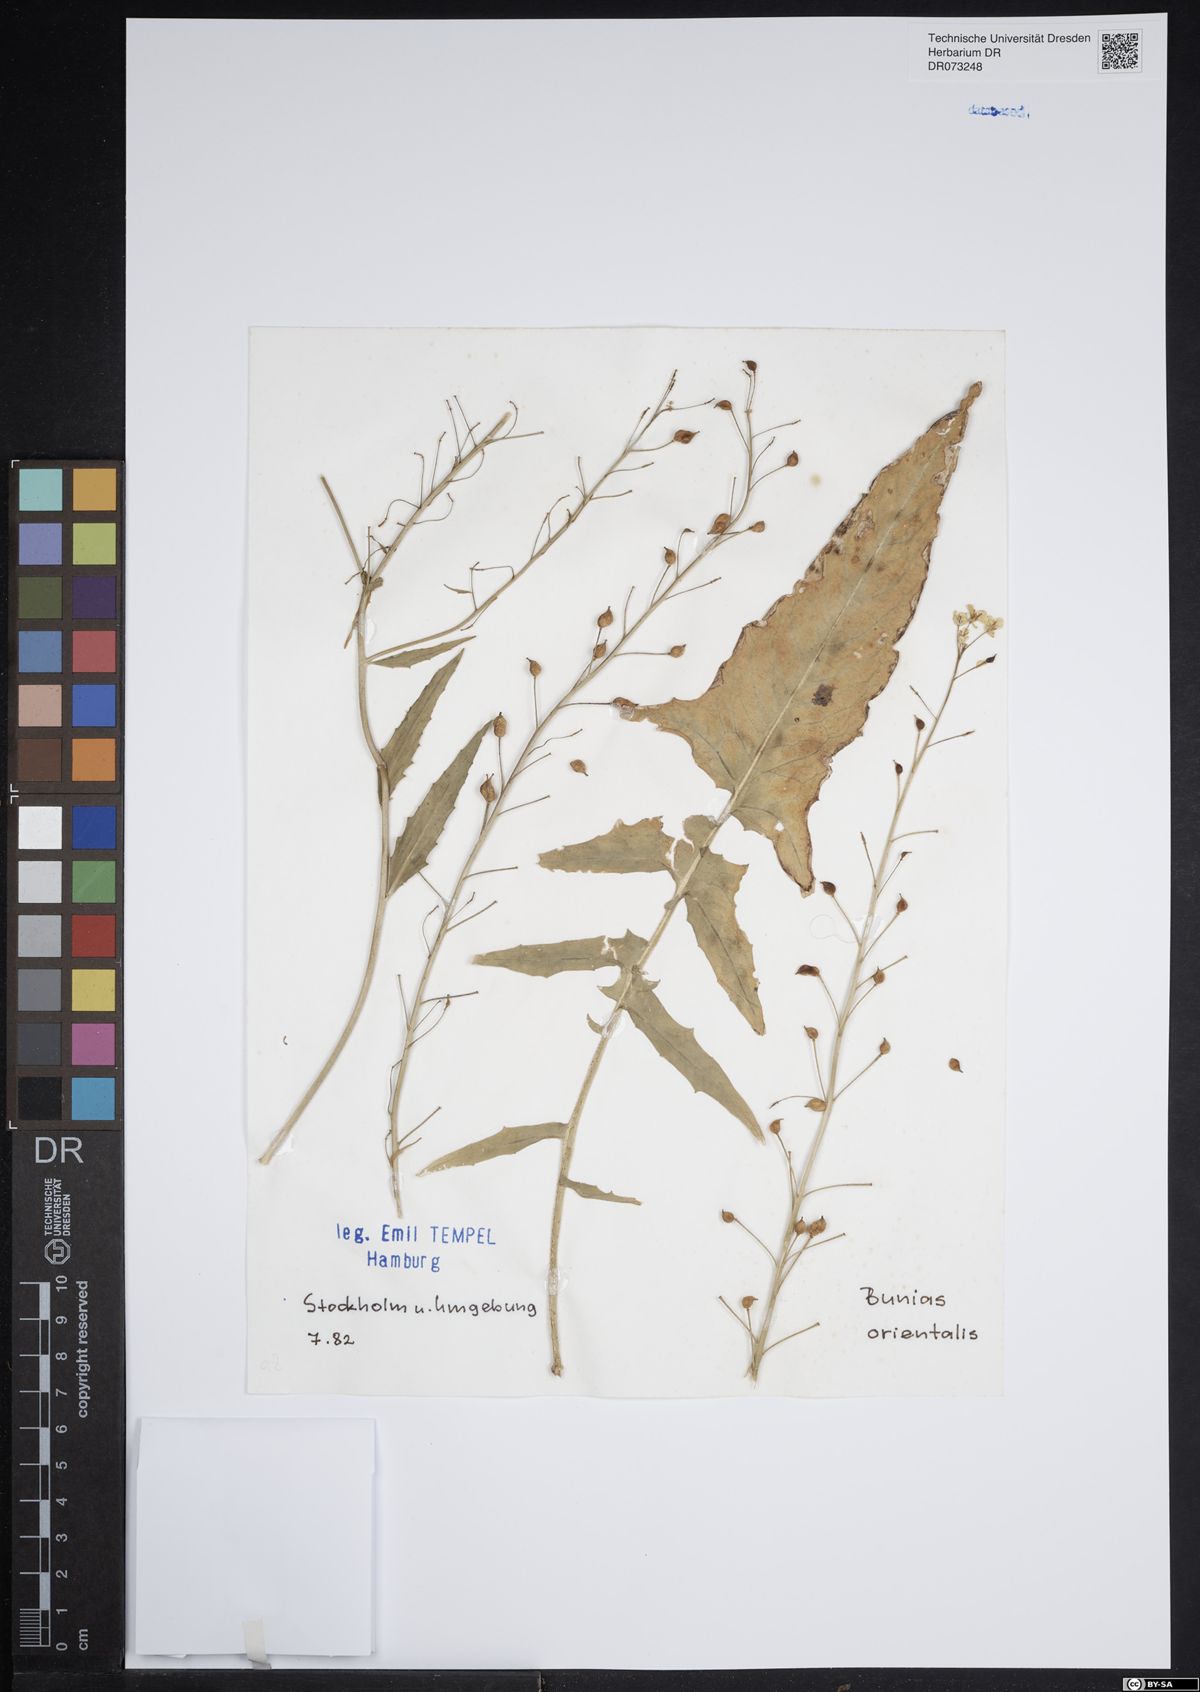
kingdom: Plantae
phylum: Tracheophyta
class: Magnoliopsida
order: Brassicales
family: Brassicaceae
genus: Bunias
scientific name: Bunias orientalis
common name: Warty-cabbage
